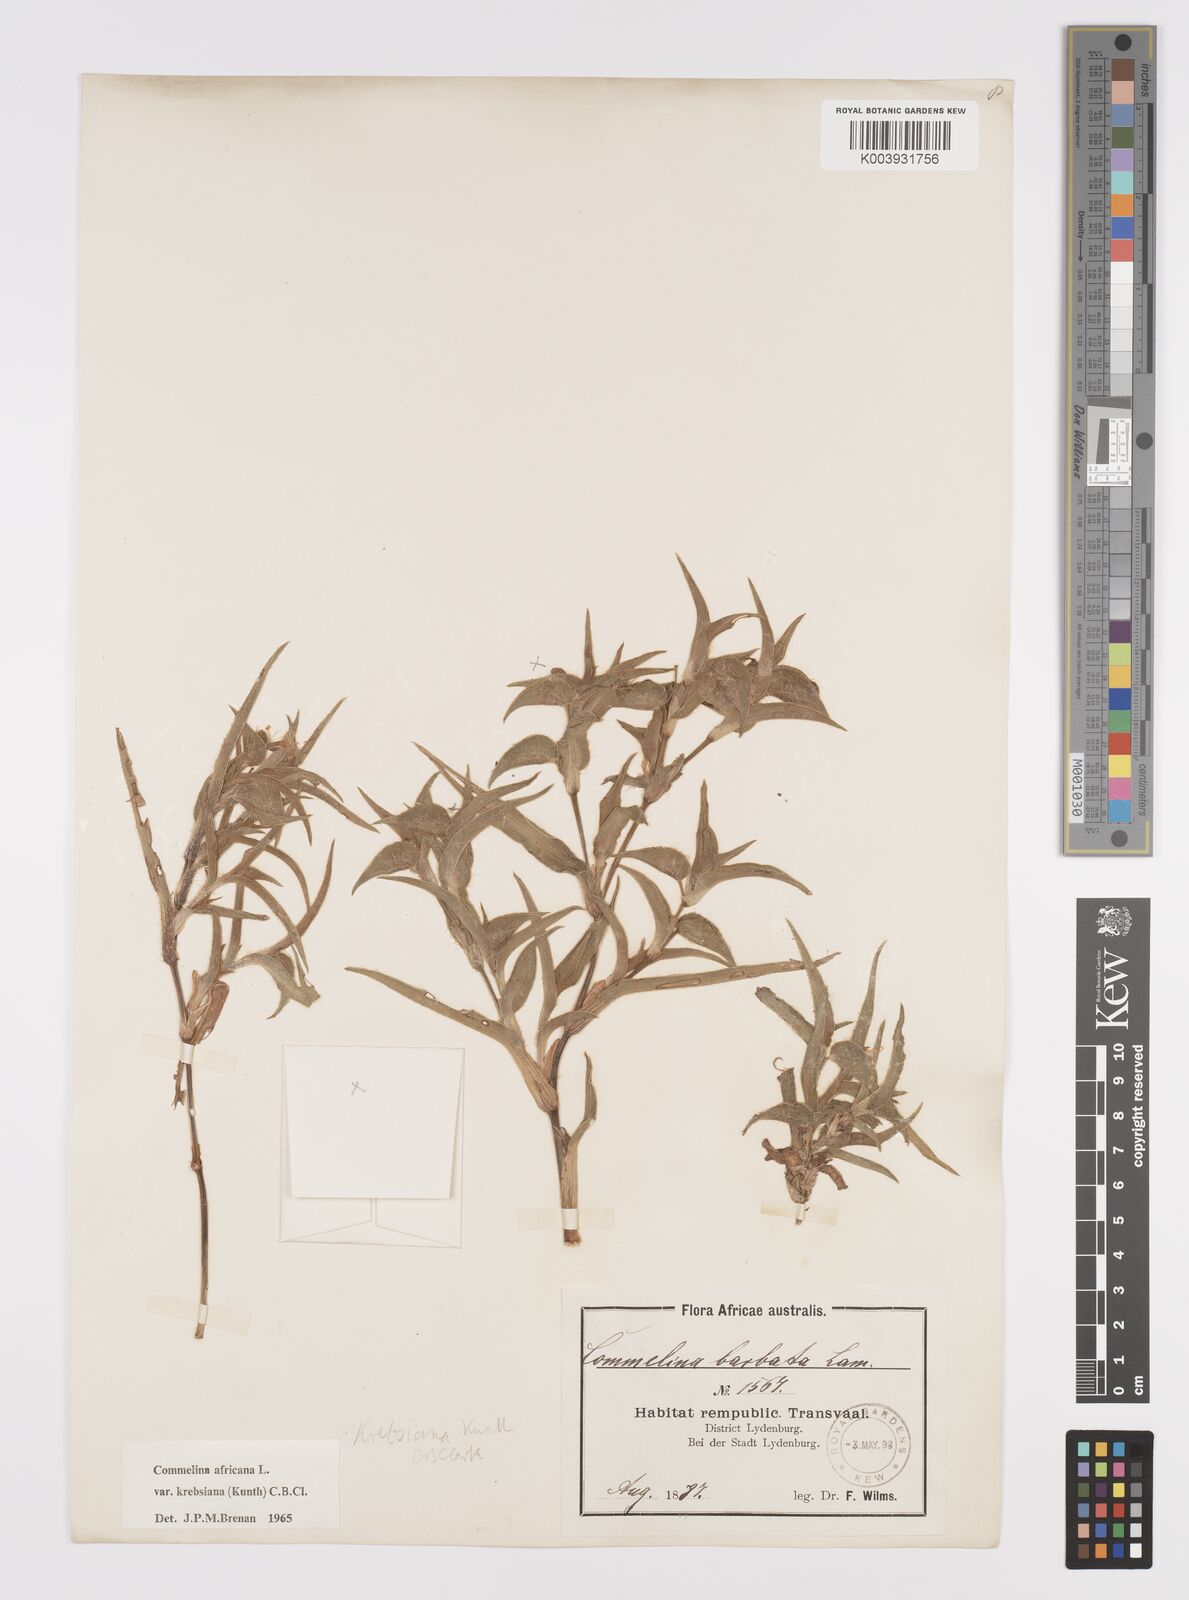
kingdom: Plantae
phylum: Tracheophyta
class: Liliopsida
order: Commelinales
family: Commelinaceae
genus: Commelina
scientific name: Commelina africana
